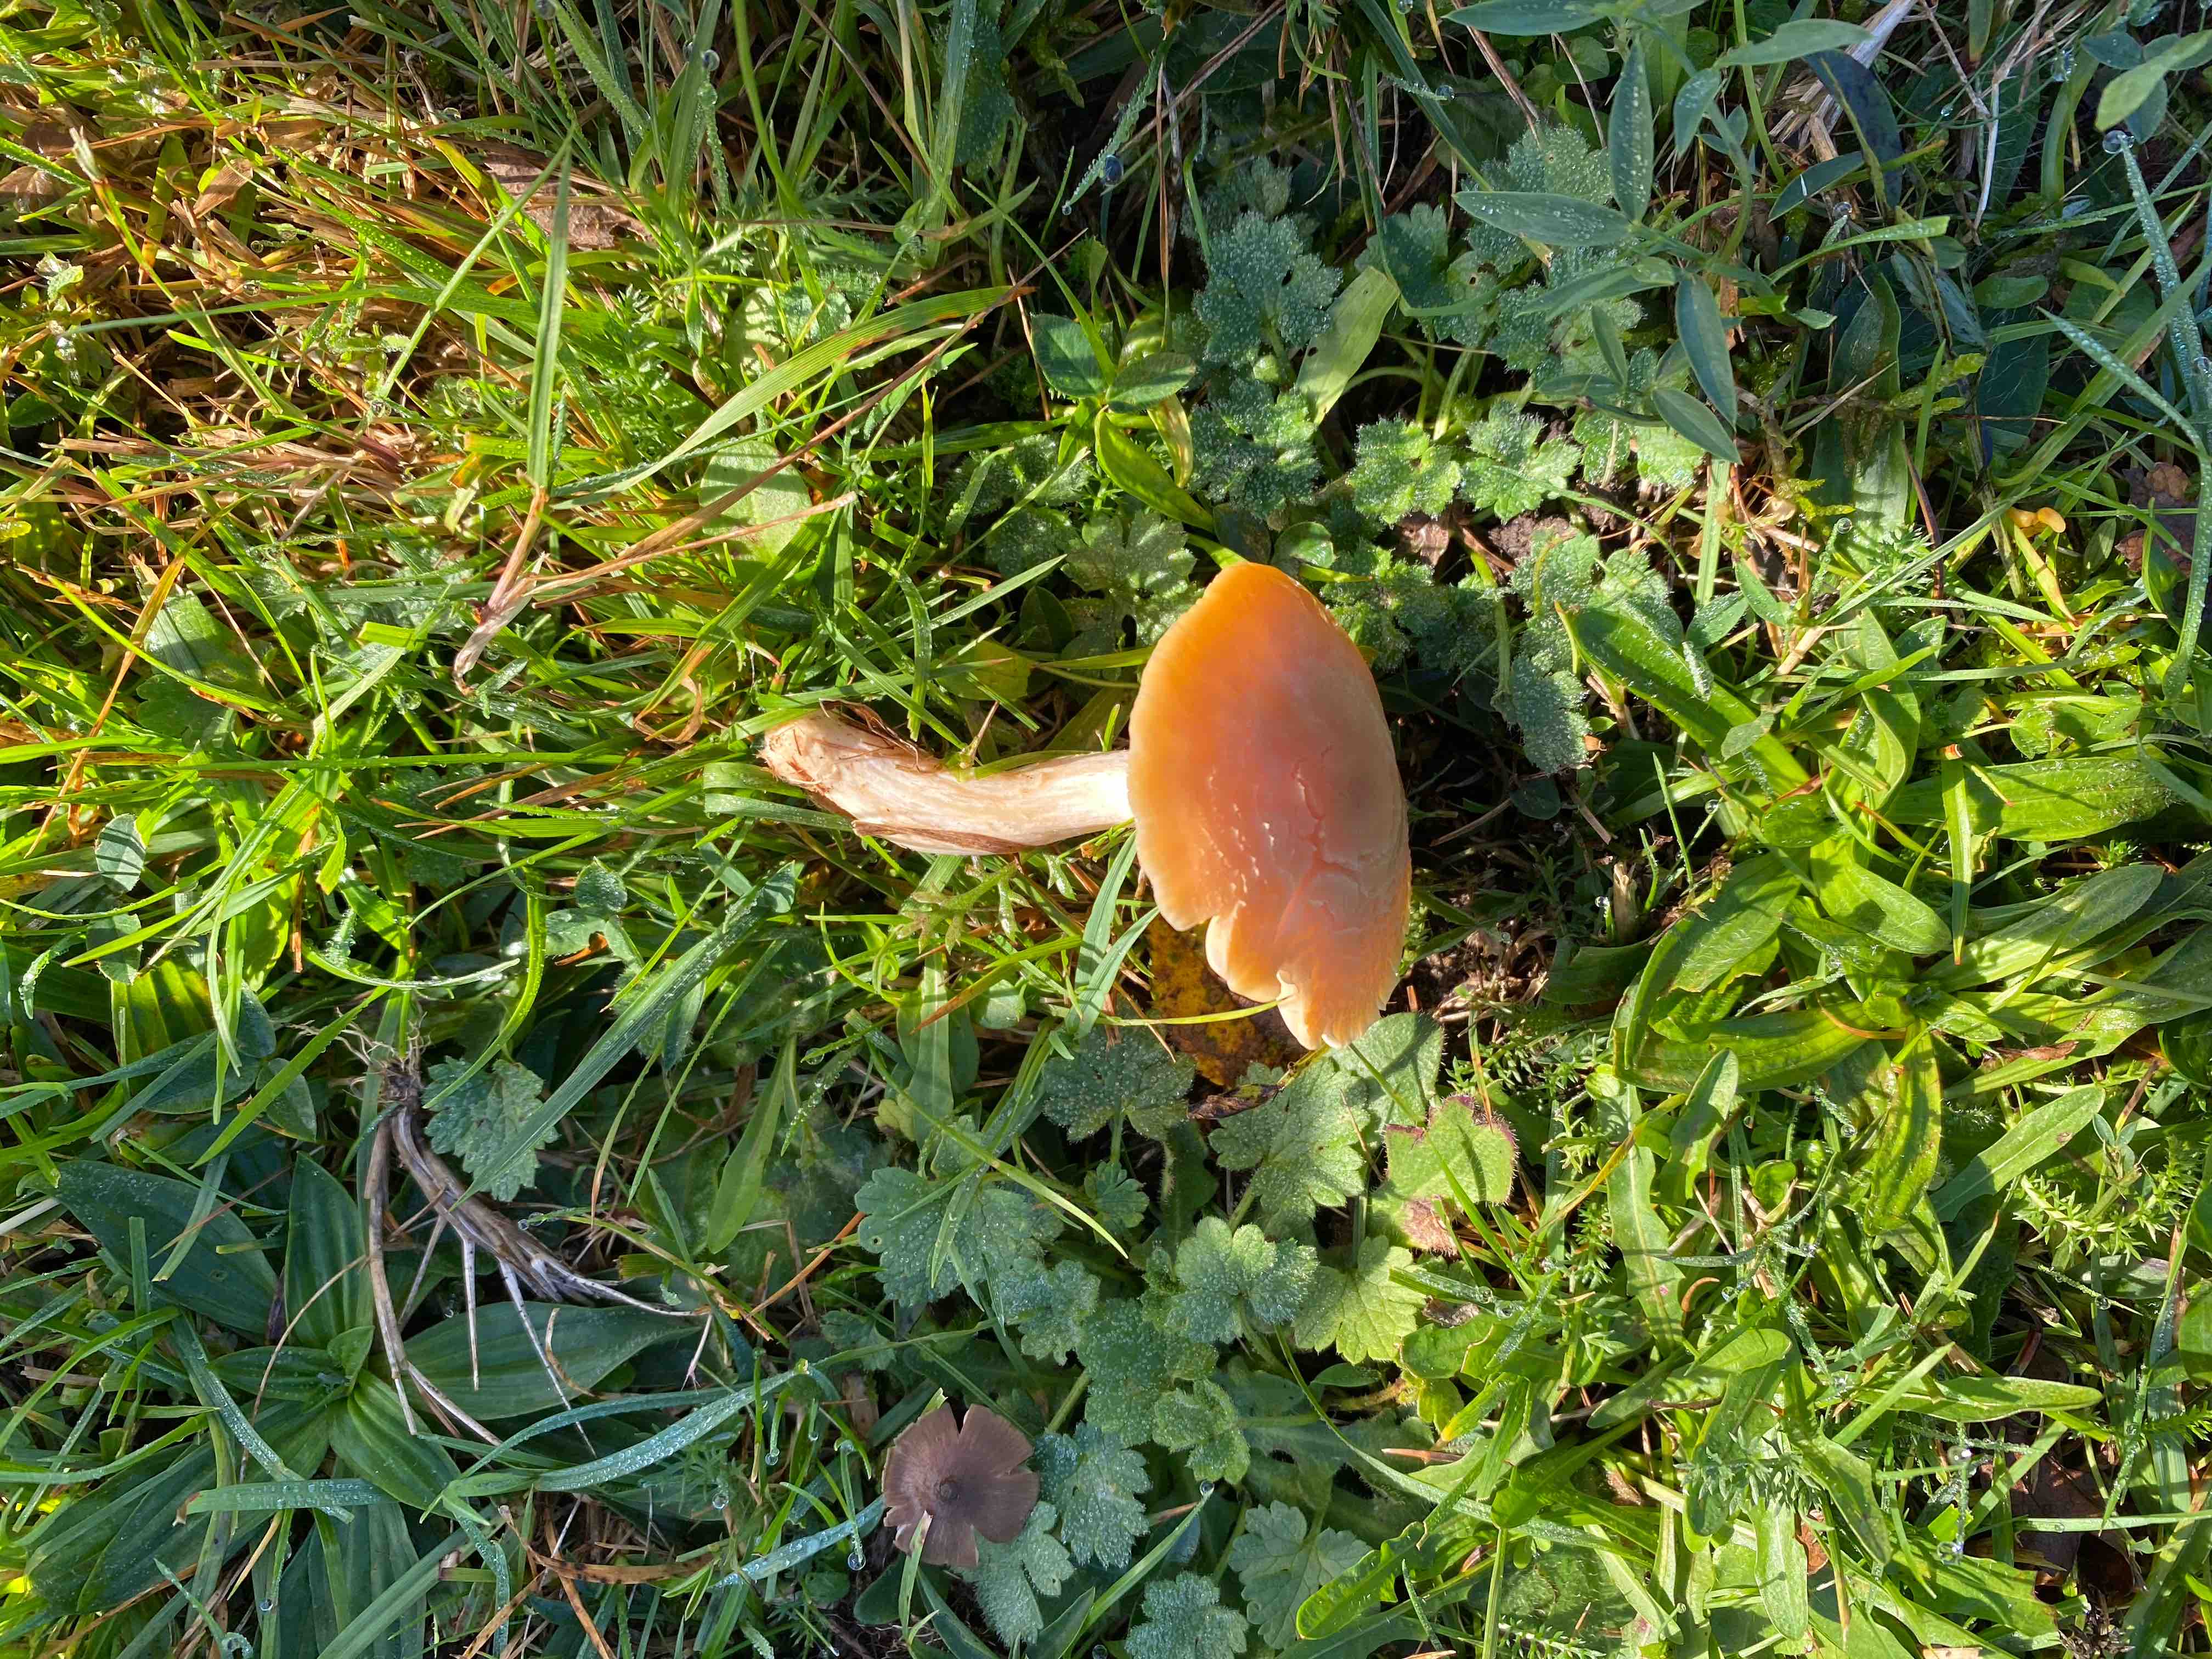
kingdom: Fungi
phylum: Basidiomycota
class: Agaricomycetes
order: Agaricales
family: Hygrophoraceae
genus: Cuphophyllus
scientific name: Cuphophyllus pratensis
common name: eng-vokshat
